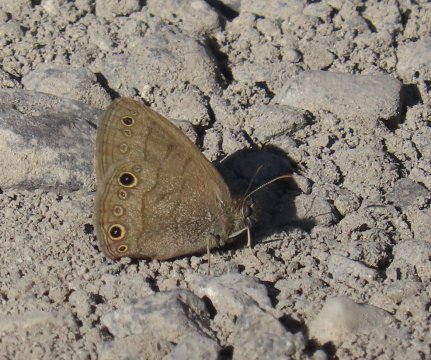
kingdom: Animalia
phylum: Arthropoda
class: Insecta
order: Lepidoptera
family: Nymphalidae
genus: Hermeuptychia
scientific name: Hermeuptychia hermes
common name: Carolina Satyr
